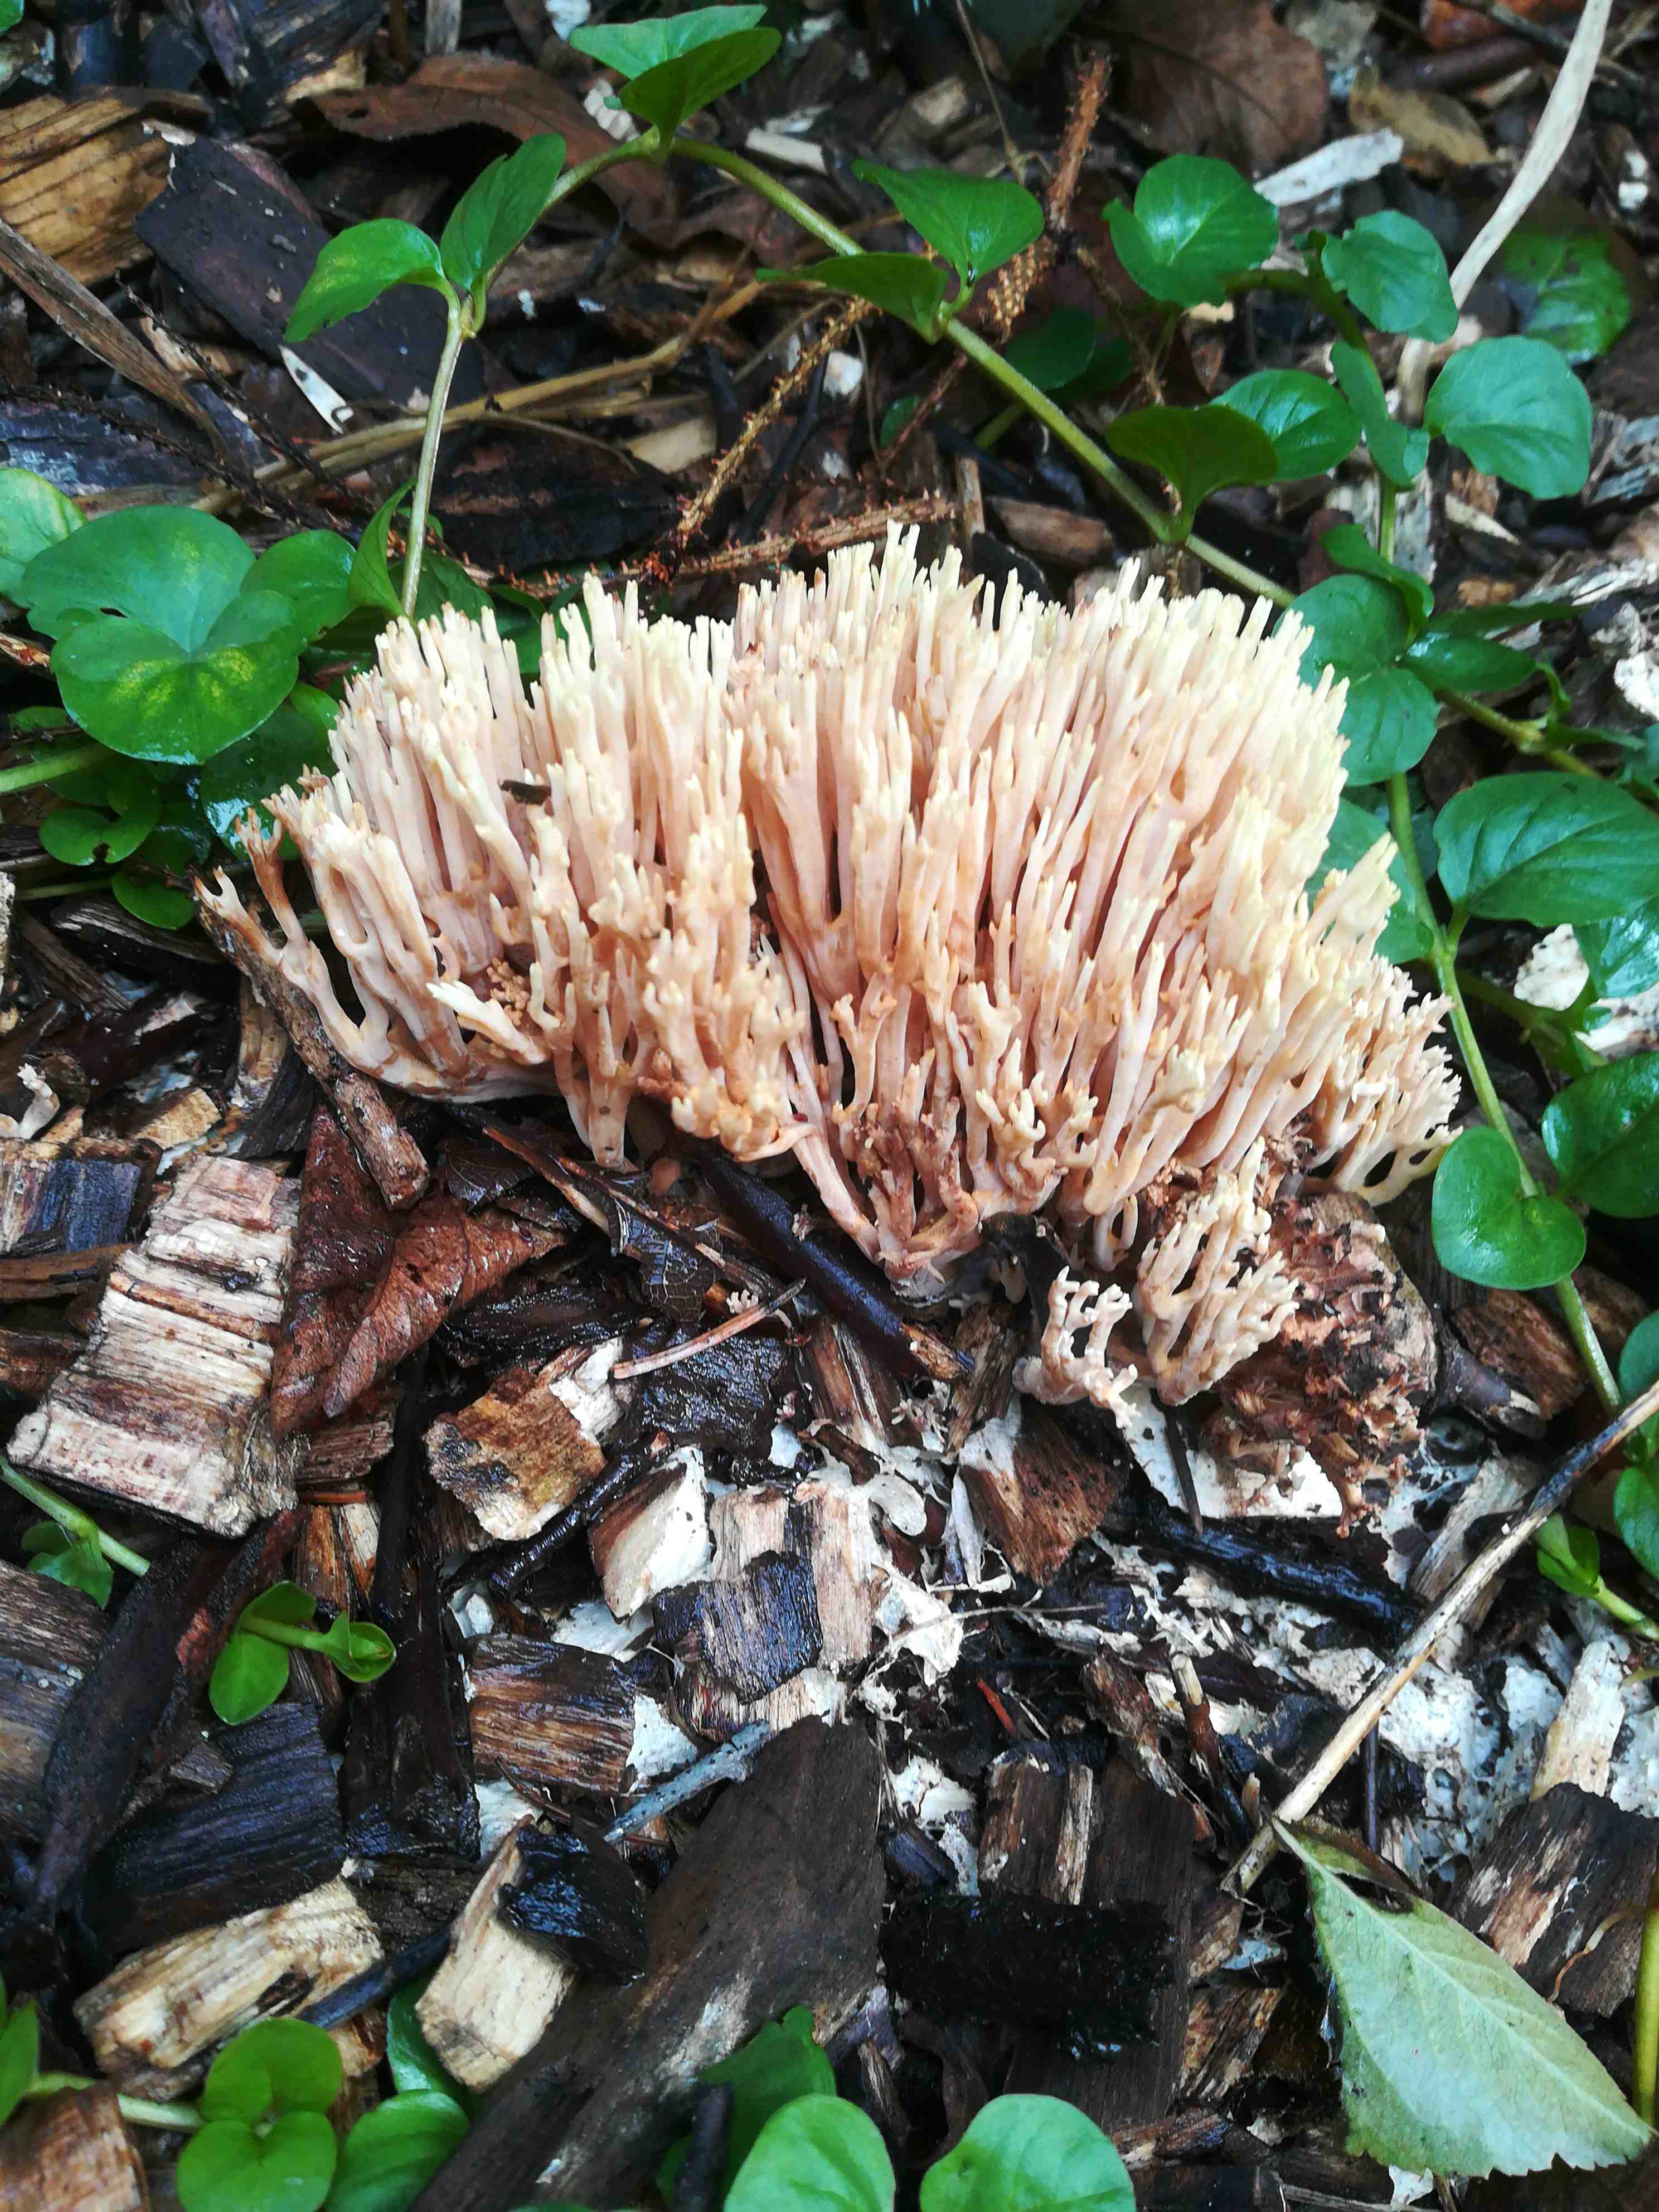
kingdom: Fungi
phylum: Basidiomycota
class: Agaricomycetes
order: Gomphales
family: Gomphaceae
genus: Ramaria
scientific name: Ramaria stricta
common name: rank koralsvamp
